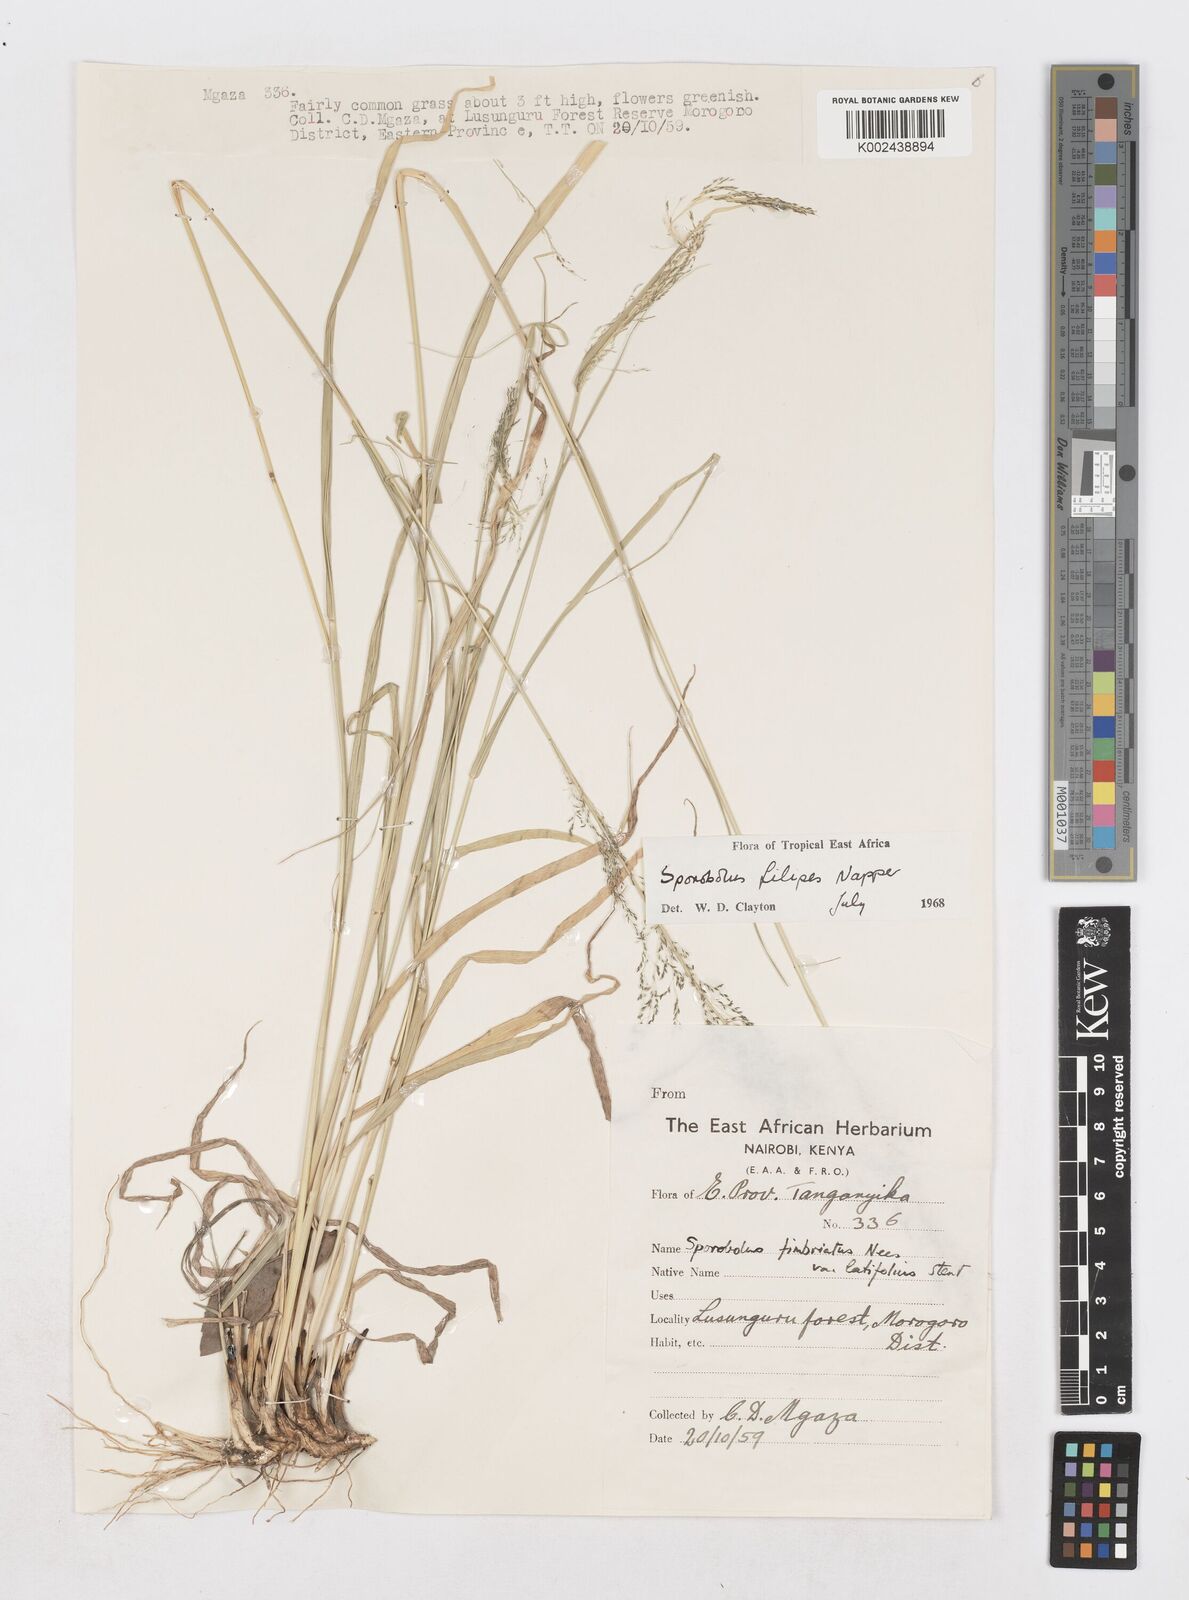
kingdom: Plantae
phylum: Tracheophyta
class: Liliopsida
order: Poales
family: Poaceae
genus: Sporobolus
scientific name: Sporobolus agrostoides
